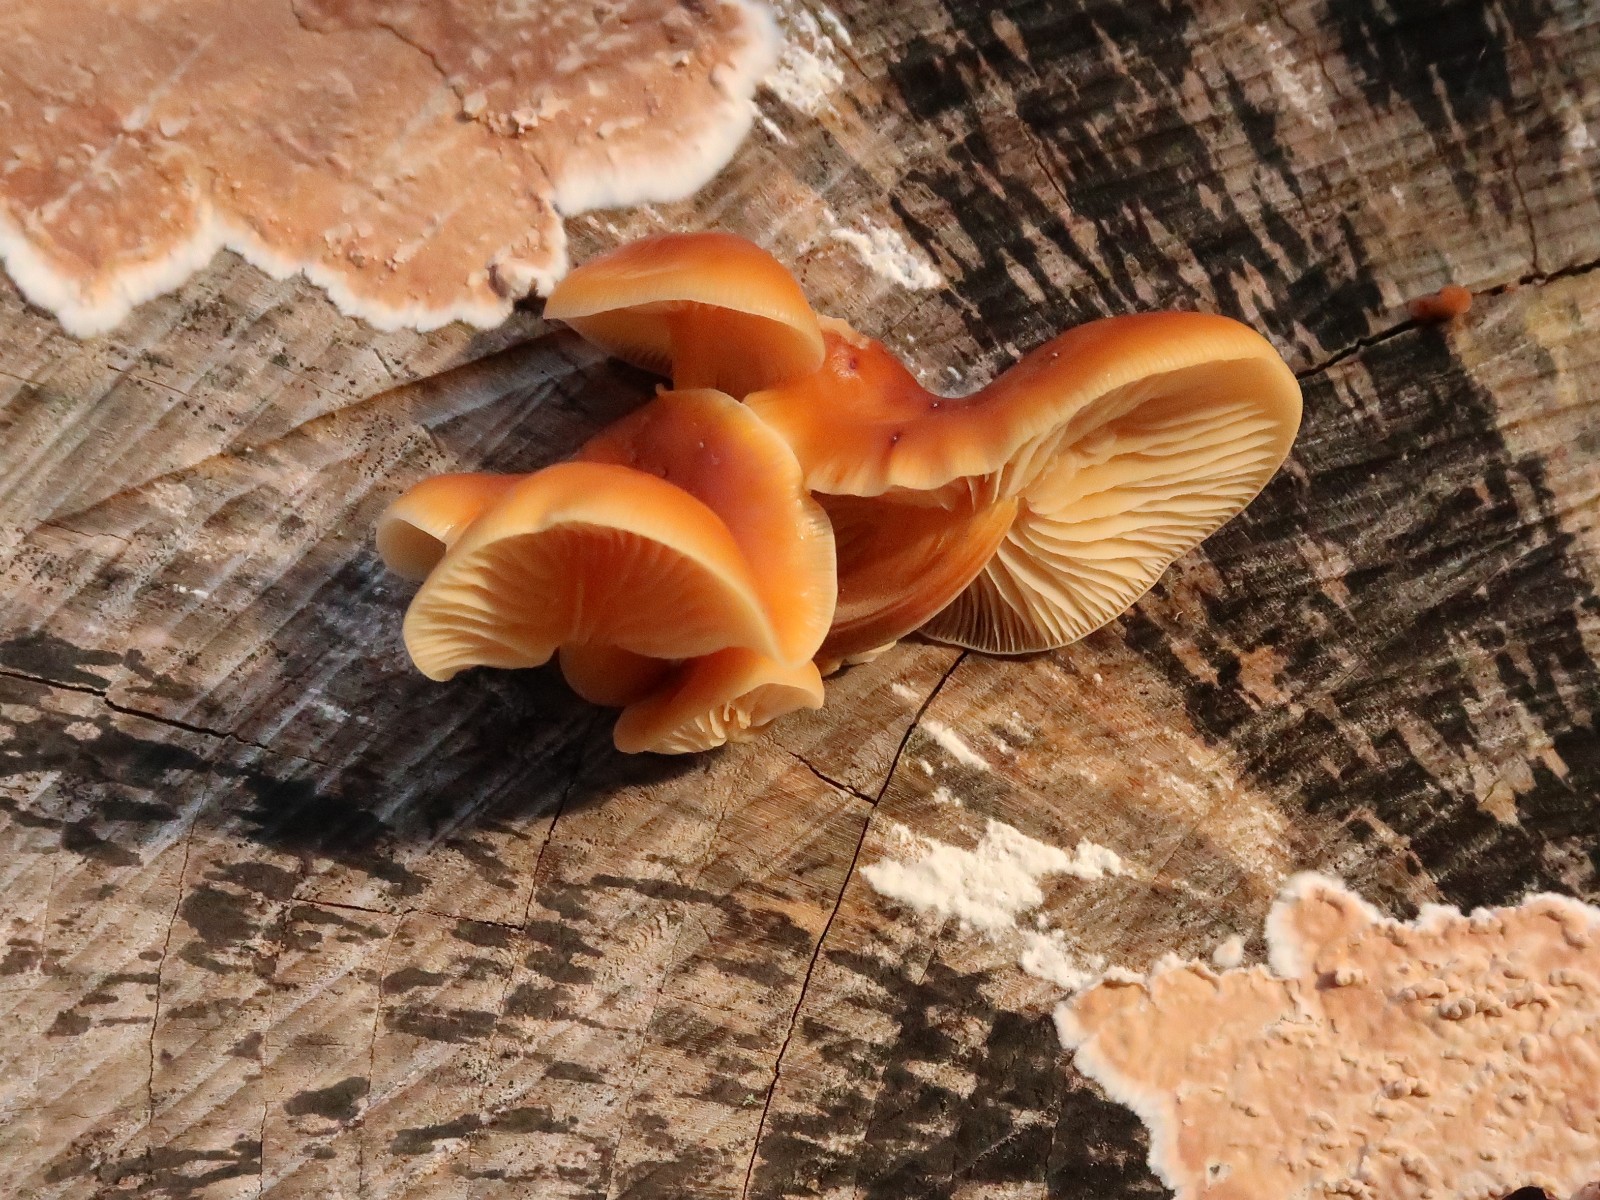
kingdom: Fungi
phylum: Basidiomycota
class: Agaricomycetes
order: Agaricales
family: Physalacriaceae
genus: Flammulina
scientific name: Flammulina velutipes
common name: gul fløjlsfod
